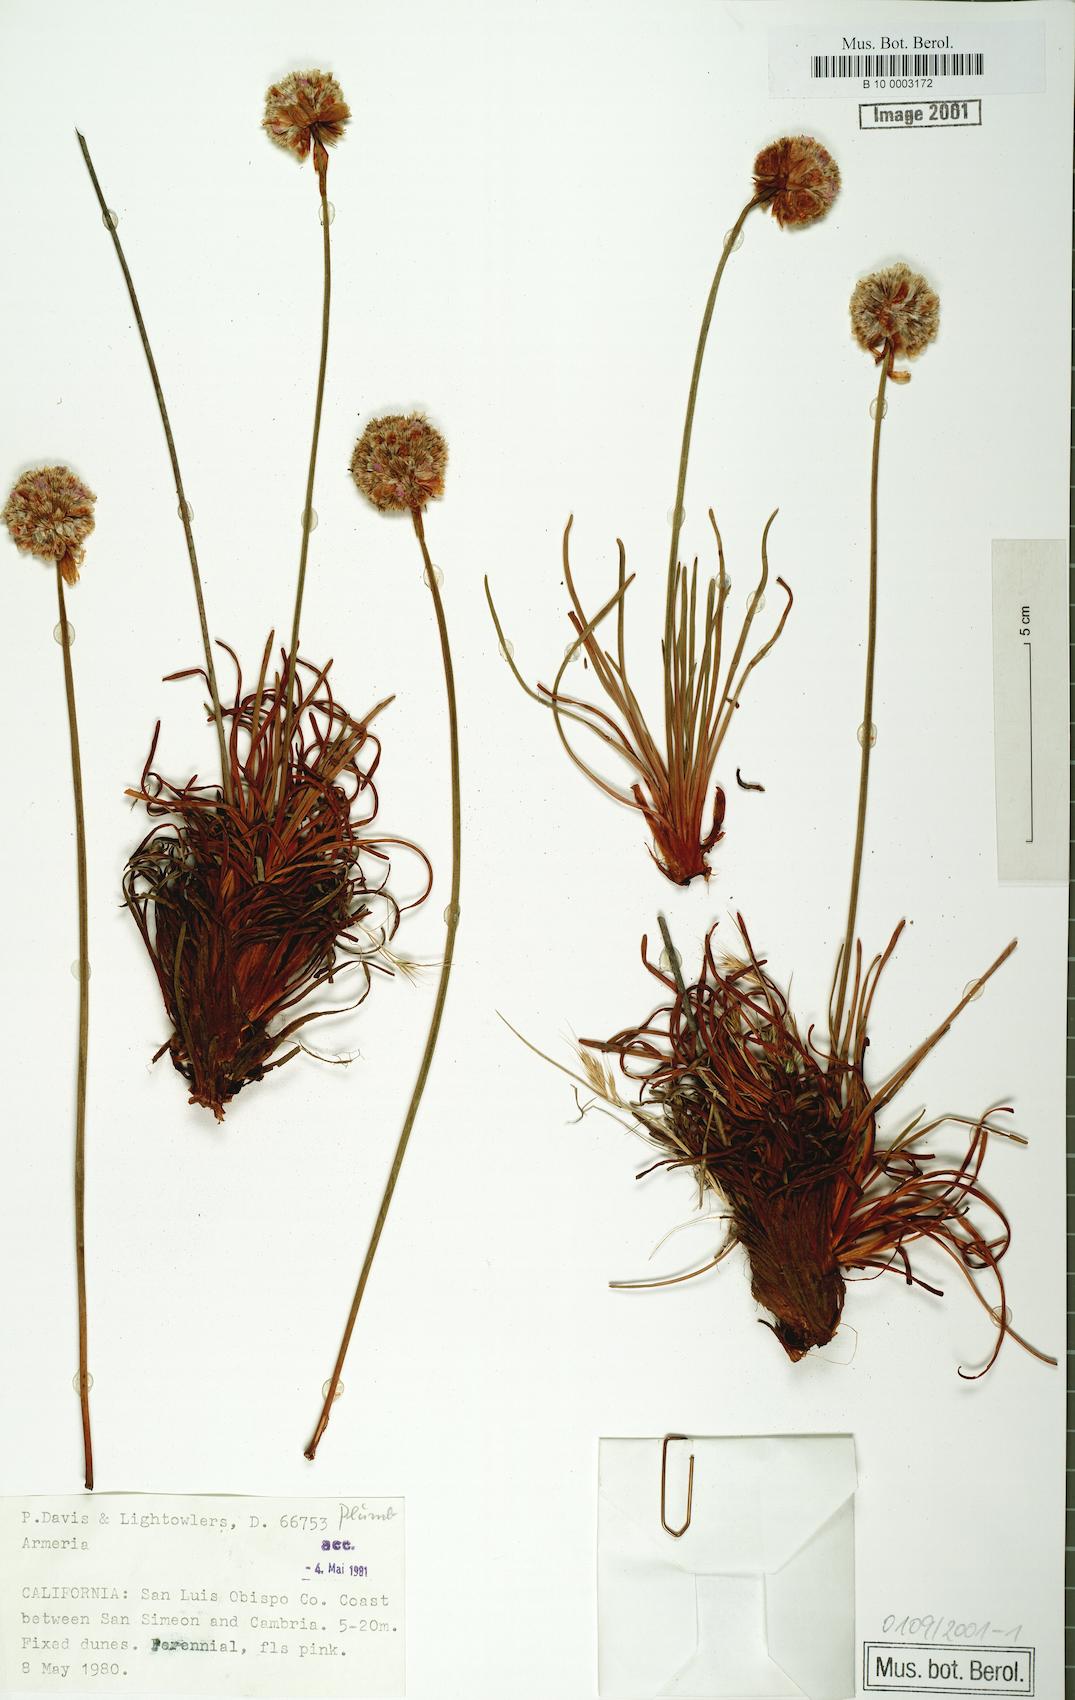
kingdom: Plantae
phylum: Tracheophyta
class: Magnoliopsida
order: Caryophyllales
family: Plumbaginaceae
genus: Armeria
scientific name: Armeria maritima
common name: Thrift
